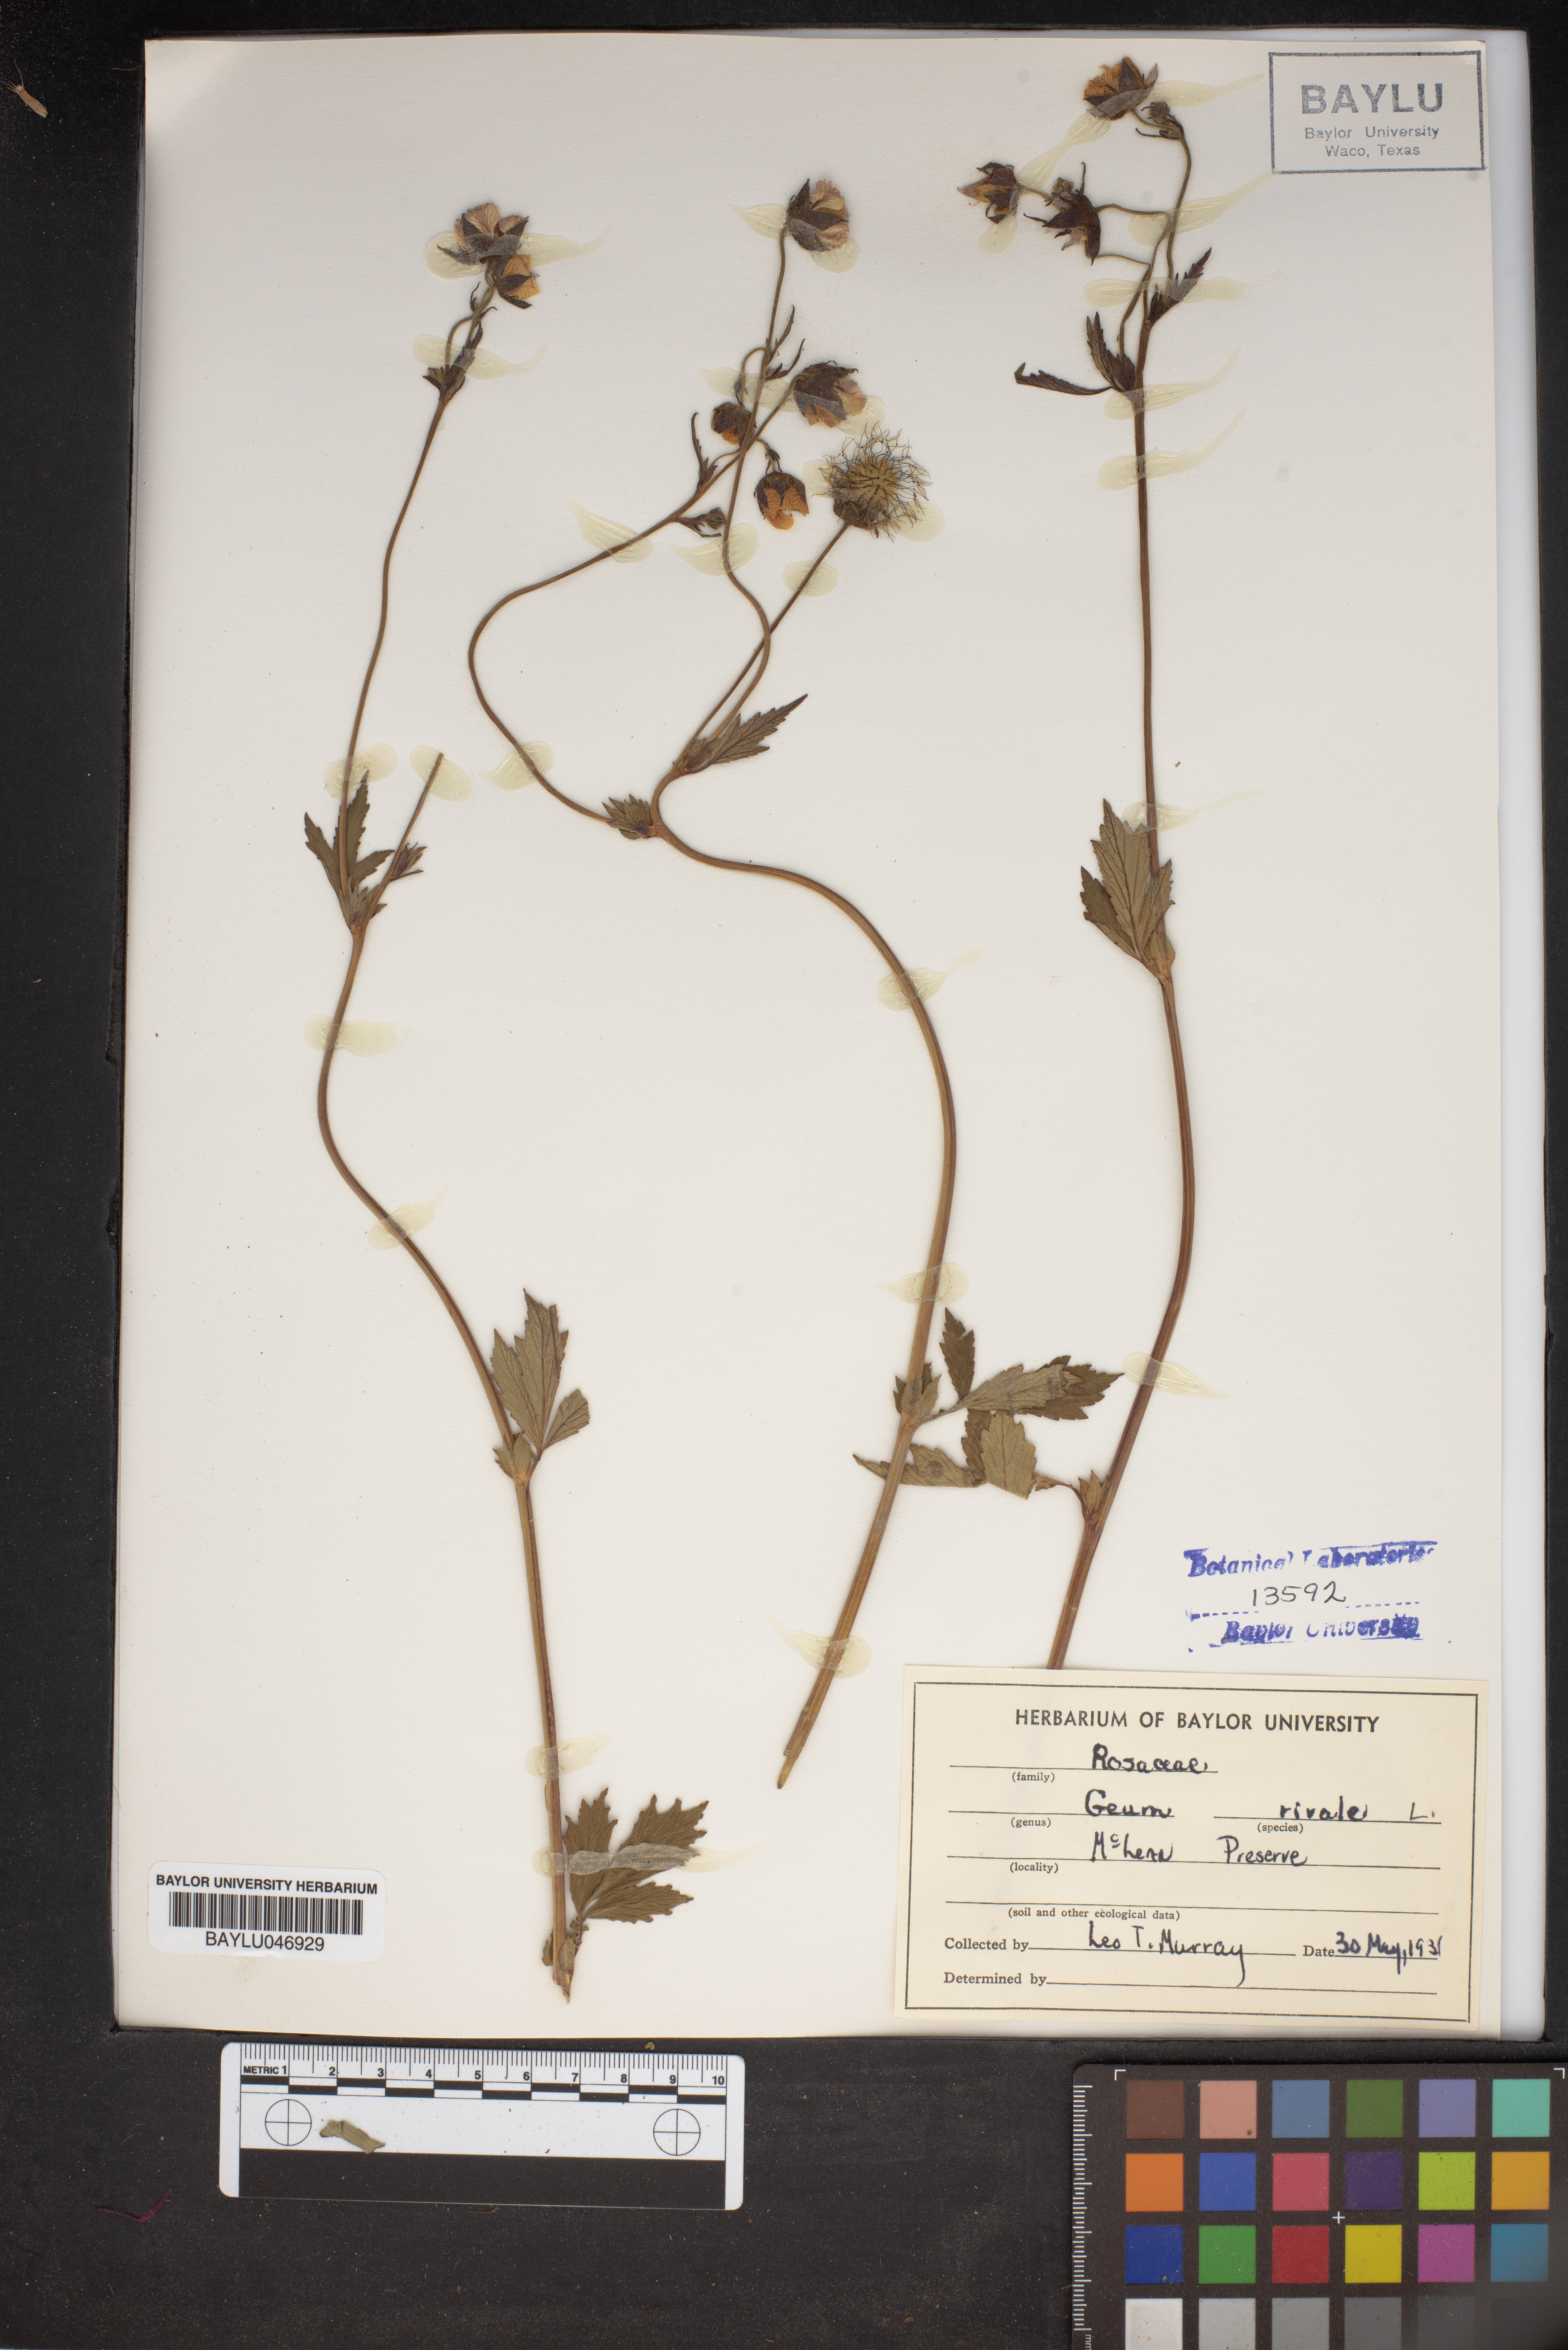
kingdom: Plantae
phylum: Tracheophyta
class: Magnoliopsida
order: Rosales
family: Rosaceae
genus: Geum
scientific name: Geum rivale
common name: Water avens
